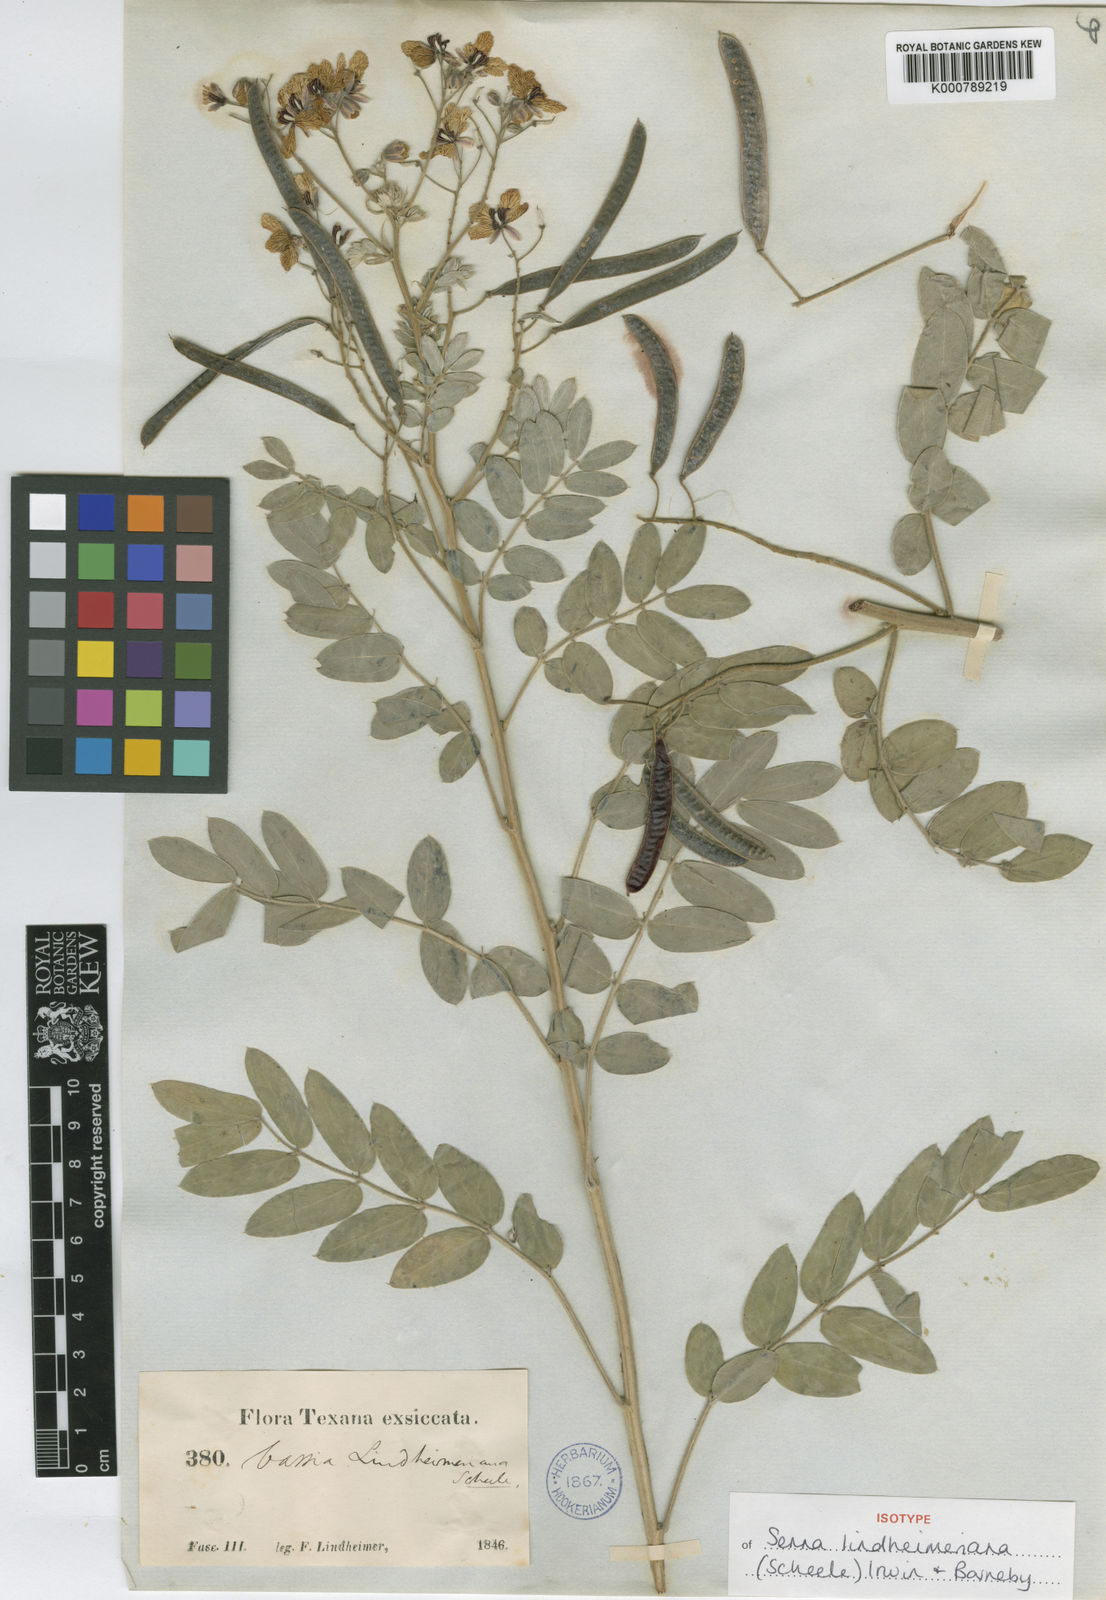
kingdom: Plantae
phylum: Tracheophyta
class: Magnoliopsida
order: Fabales
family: Fabaceae
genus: Senna
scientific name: Senna lindheimeriana
